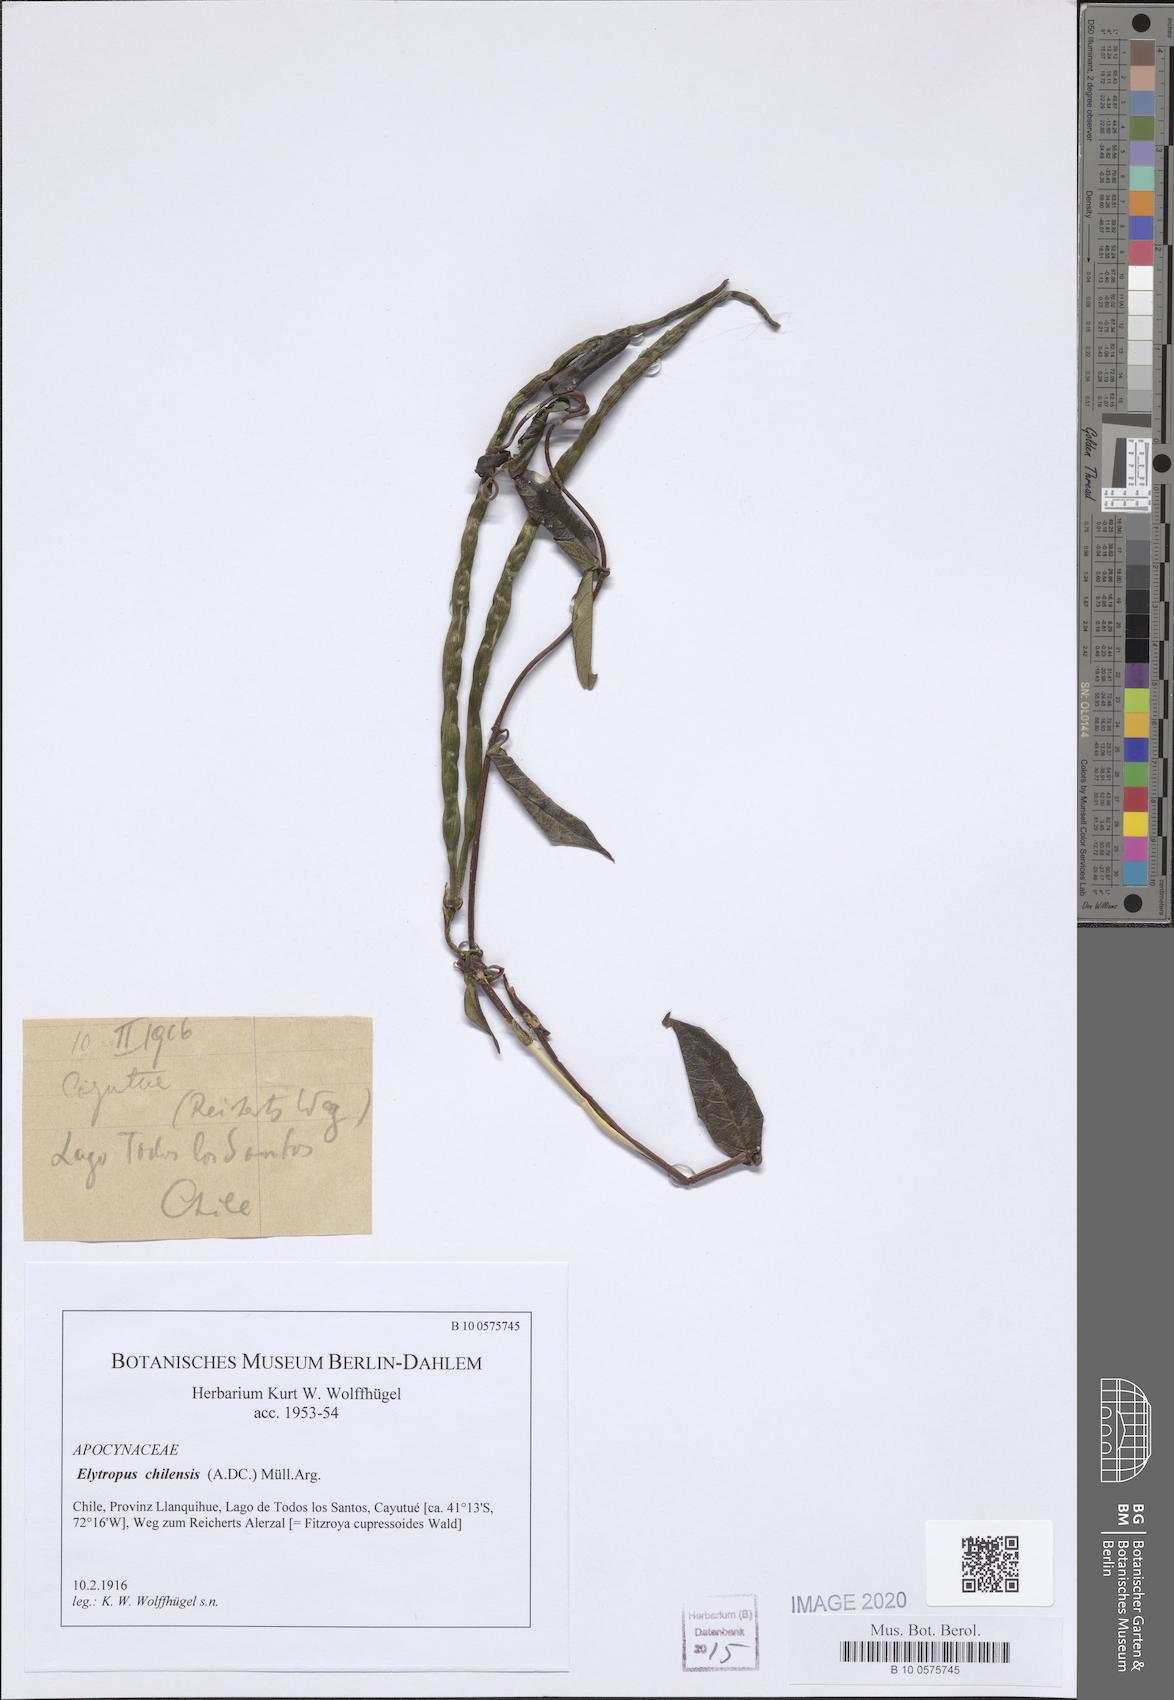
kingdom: Plantae
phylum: Tracheophyta
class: Magnoliopsida
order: Gentianales
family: Apocynaceae
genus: Mandevilla
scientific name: Mandevilla pubescens
